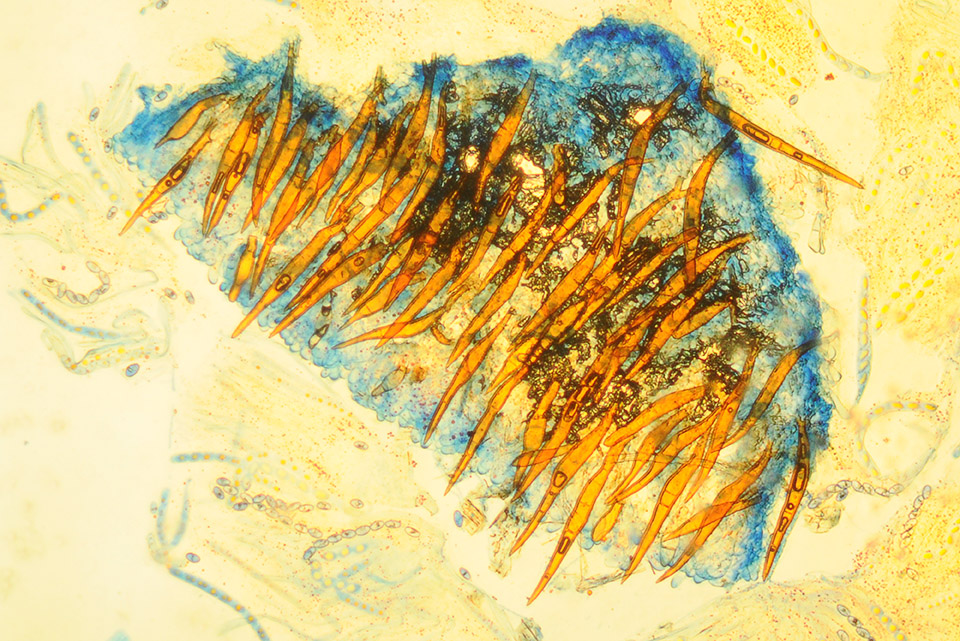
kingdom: Fungi
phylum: Ascomycota
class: Pezizomycetes
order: Pezizales
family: Pyronemataceae
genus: Scutellinia
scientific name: Scutellinia hirta
